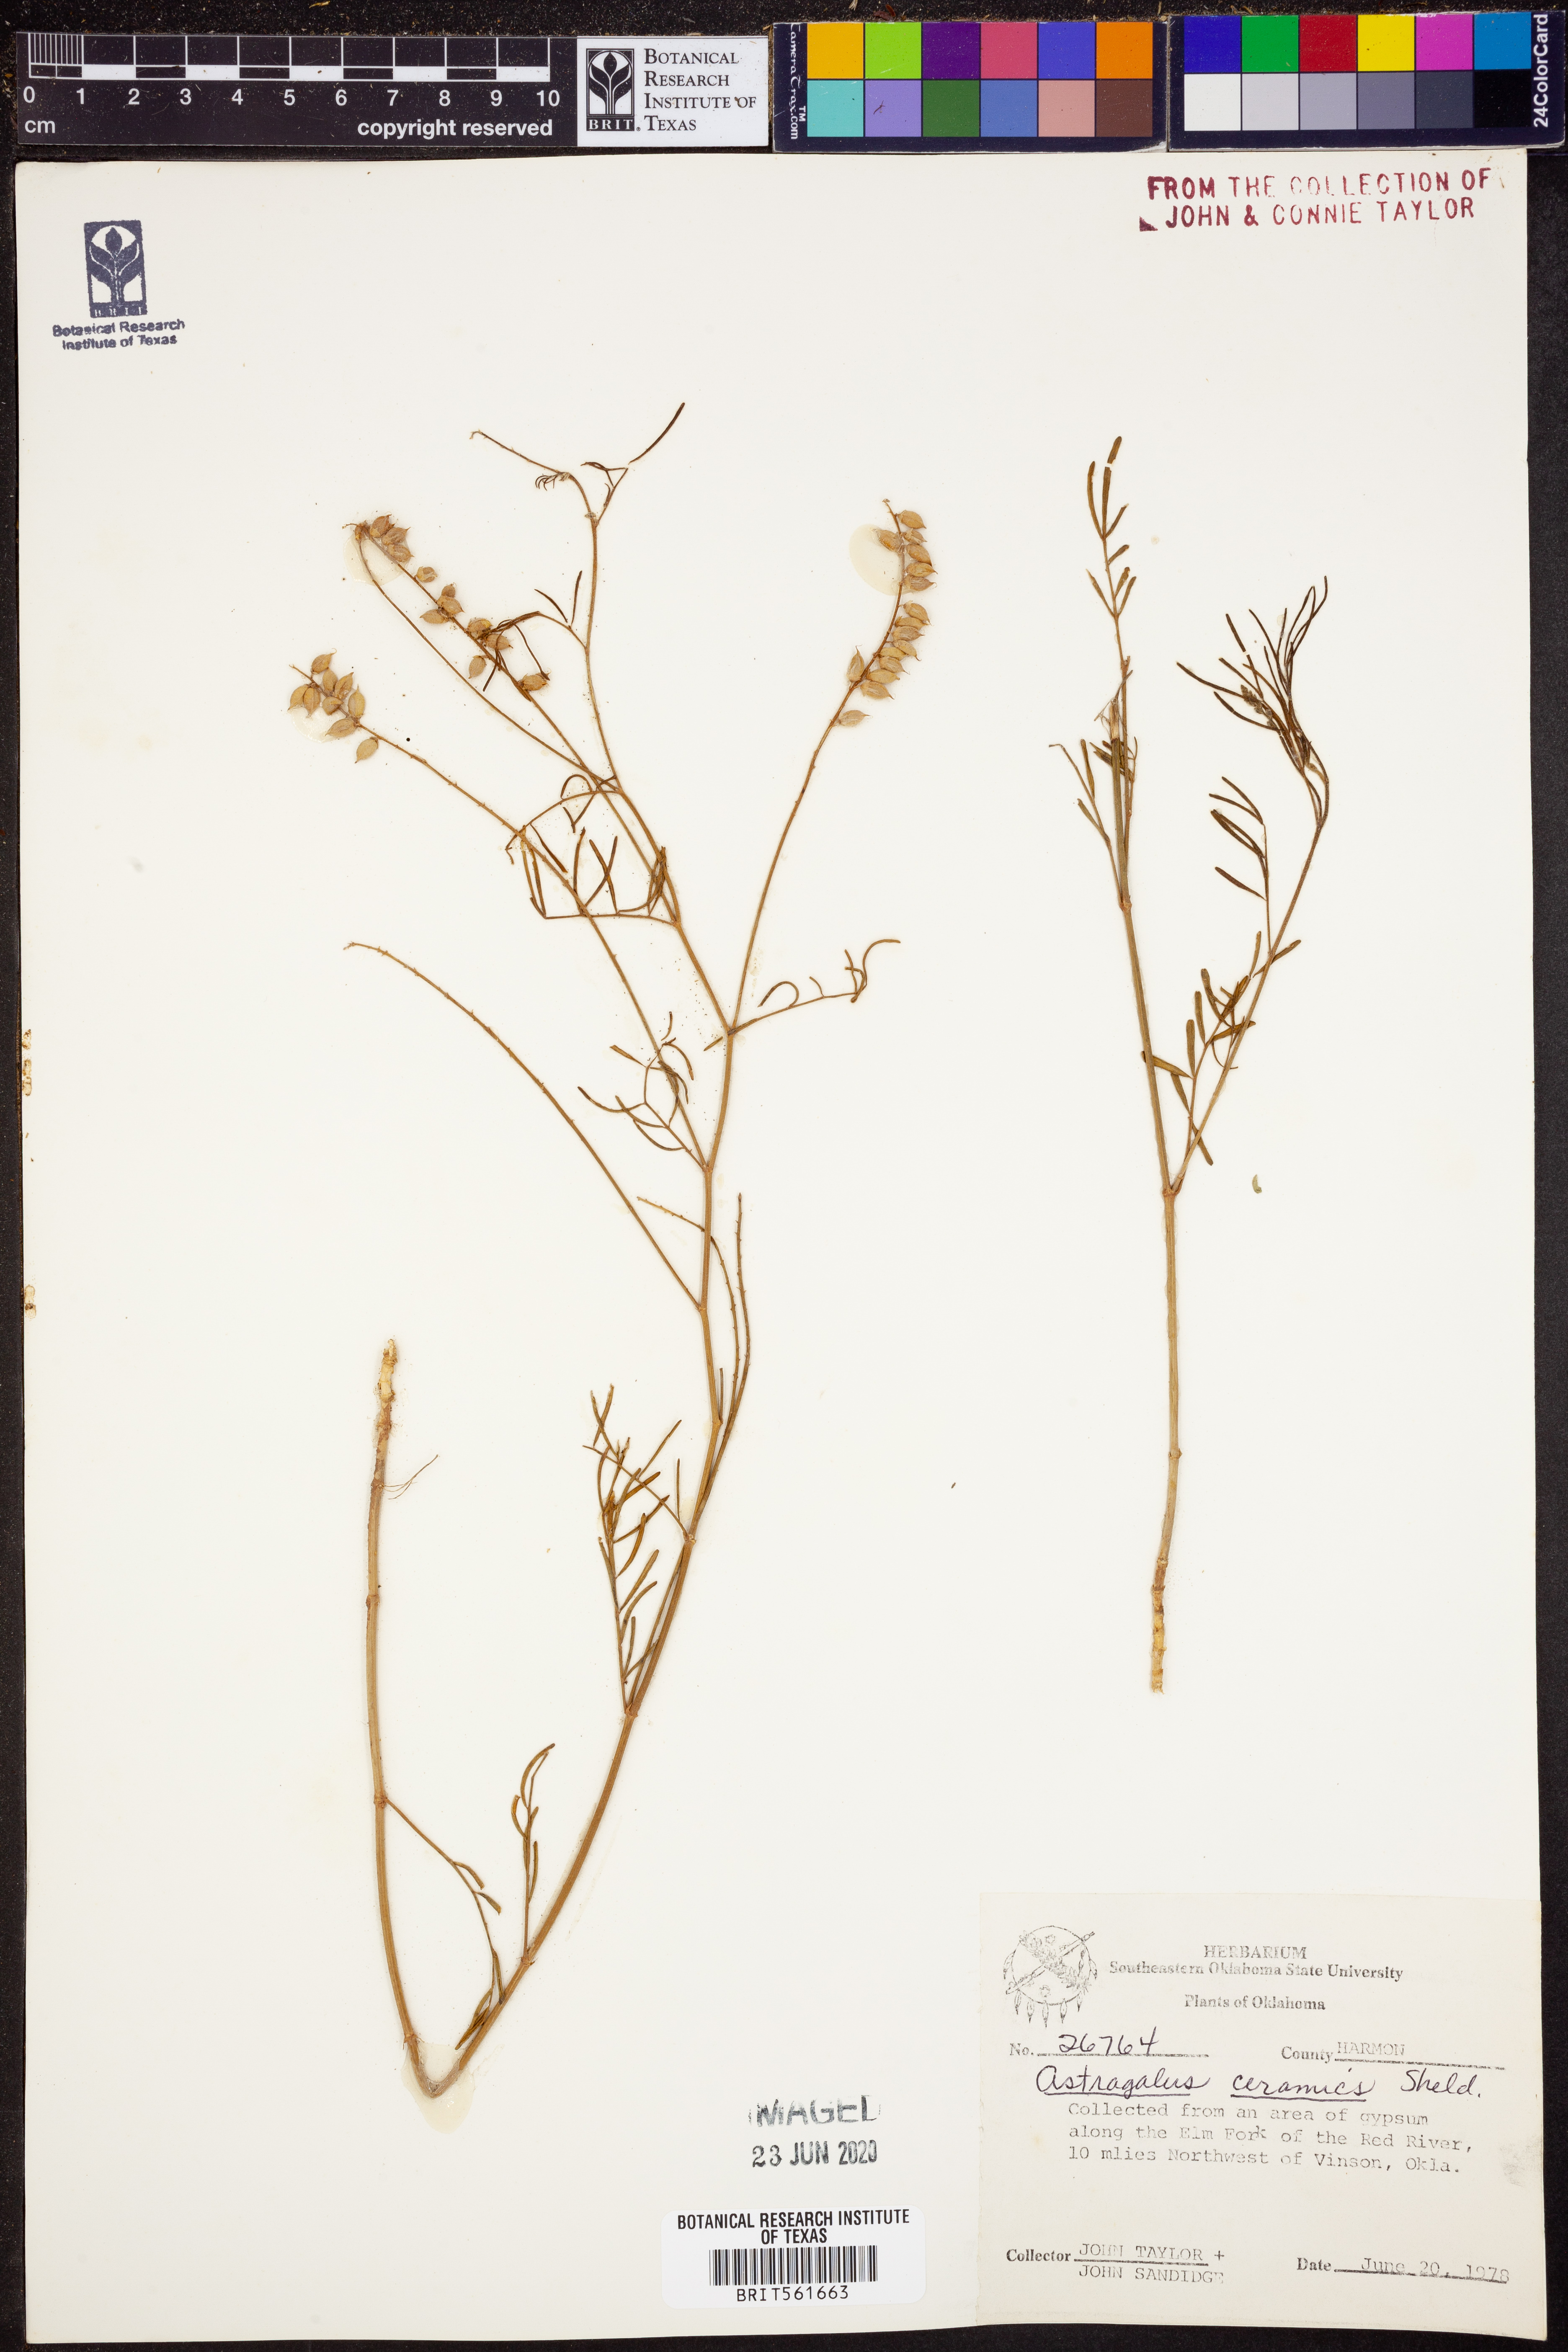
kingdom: Plantae
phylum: Tracheophyta
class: Magnoliopsida
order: Fabales
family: Fabaceae
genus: Astragalus
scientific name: Astragalus ceramicus
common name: Painted milk-vetch
